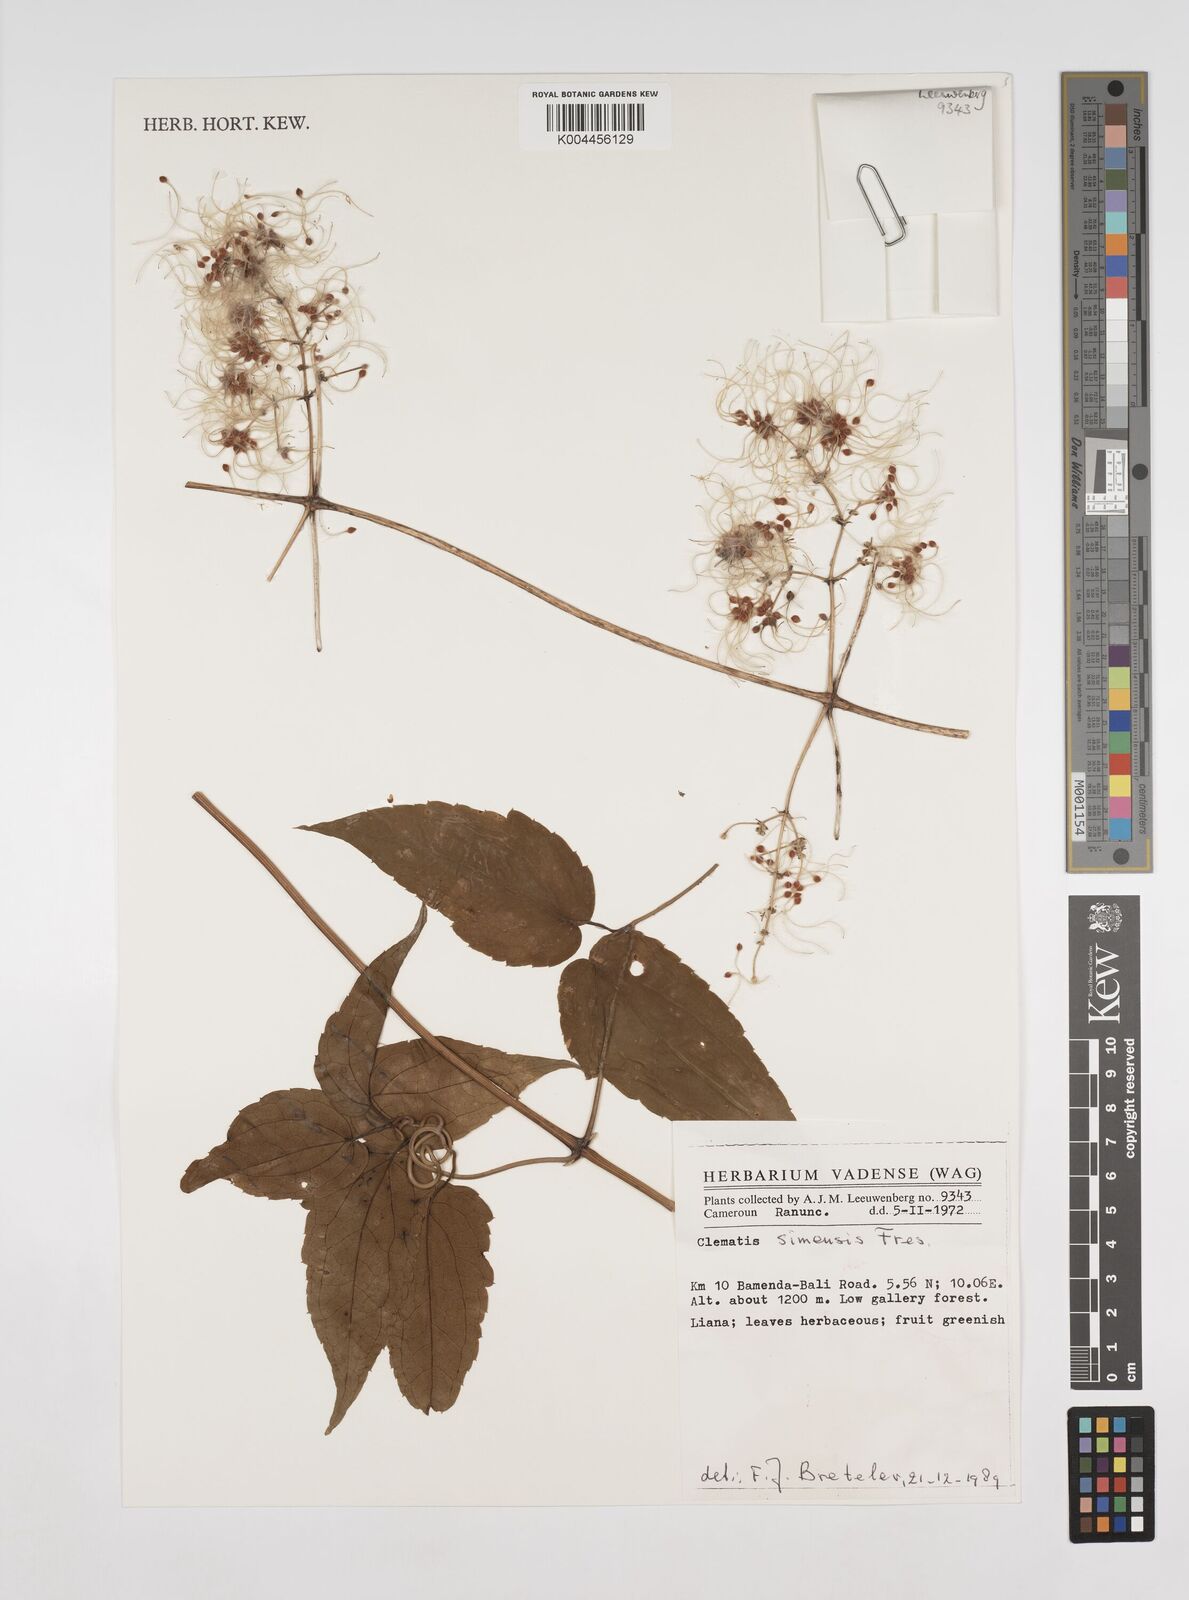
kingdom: Plantae
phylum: Tracheophyta
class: Magnoliopsida
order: Ranunculales
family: Ranunculaceae
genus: Clematis
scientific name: Clematis simensis
